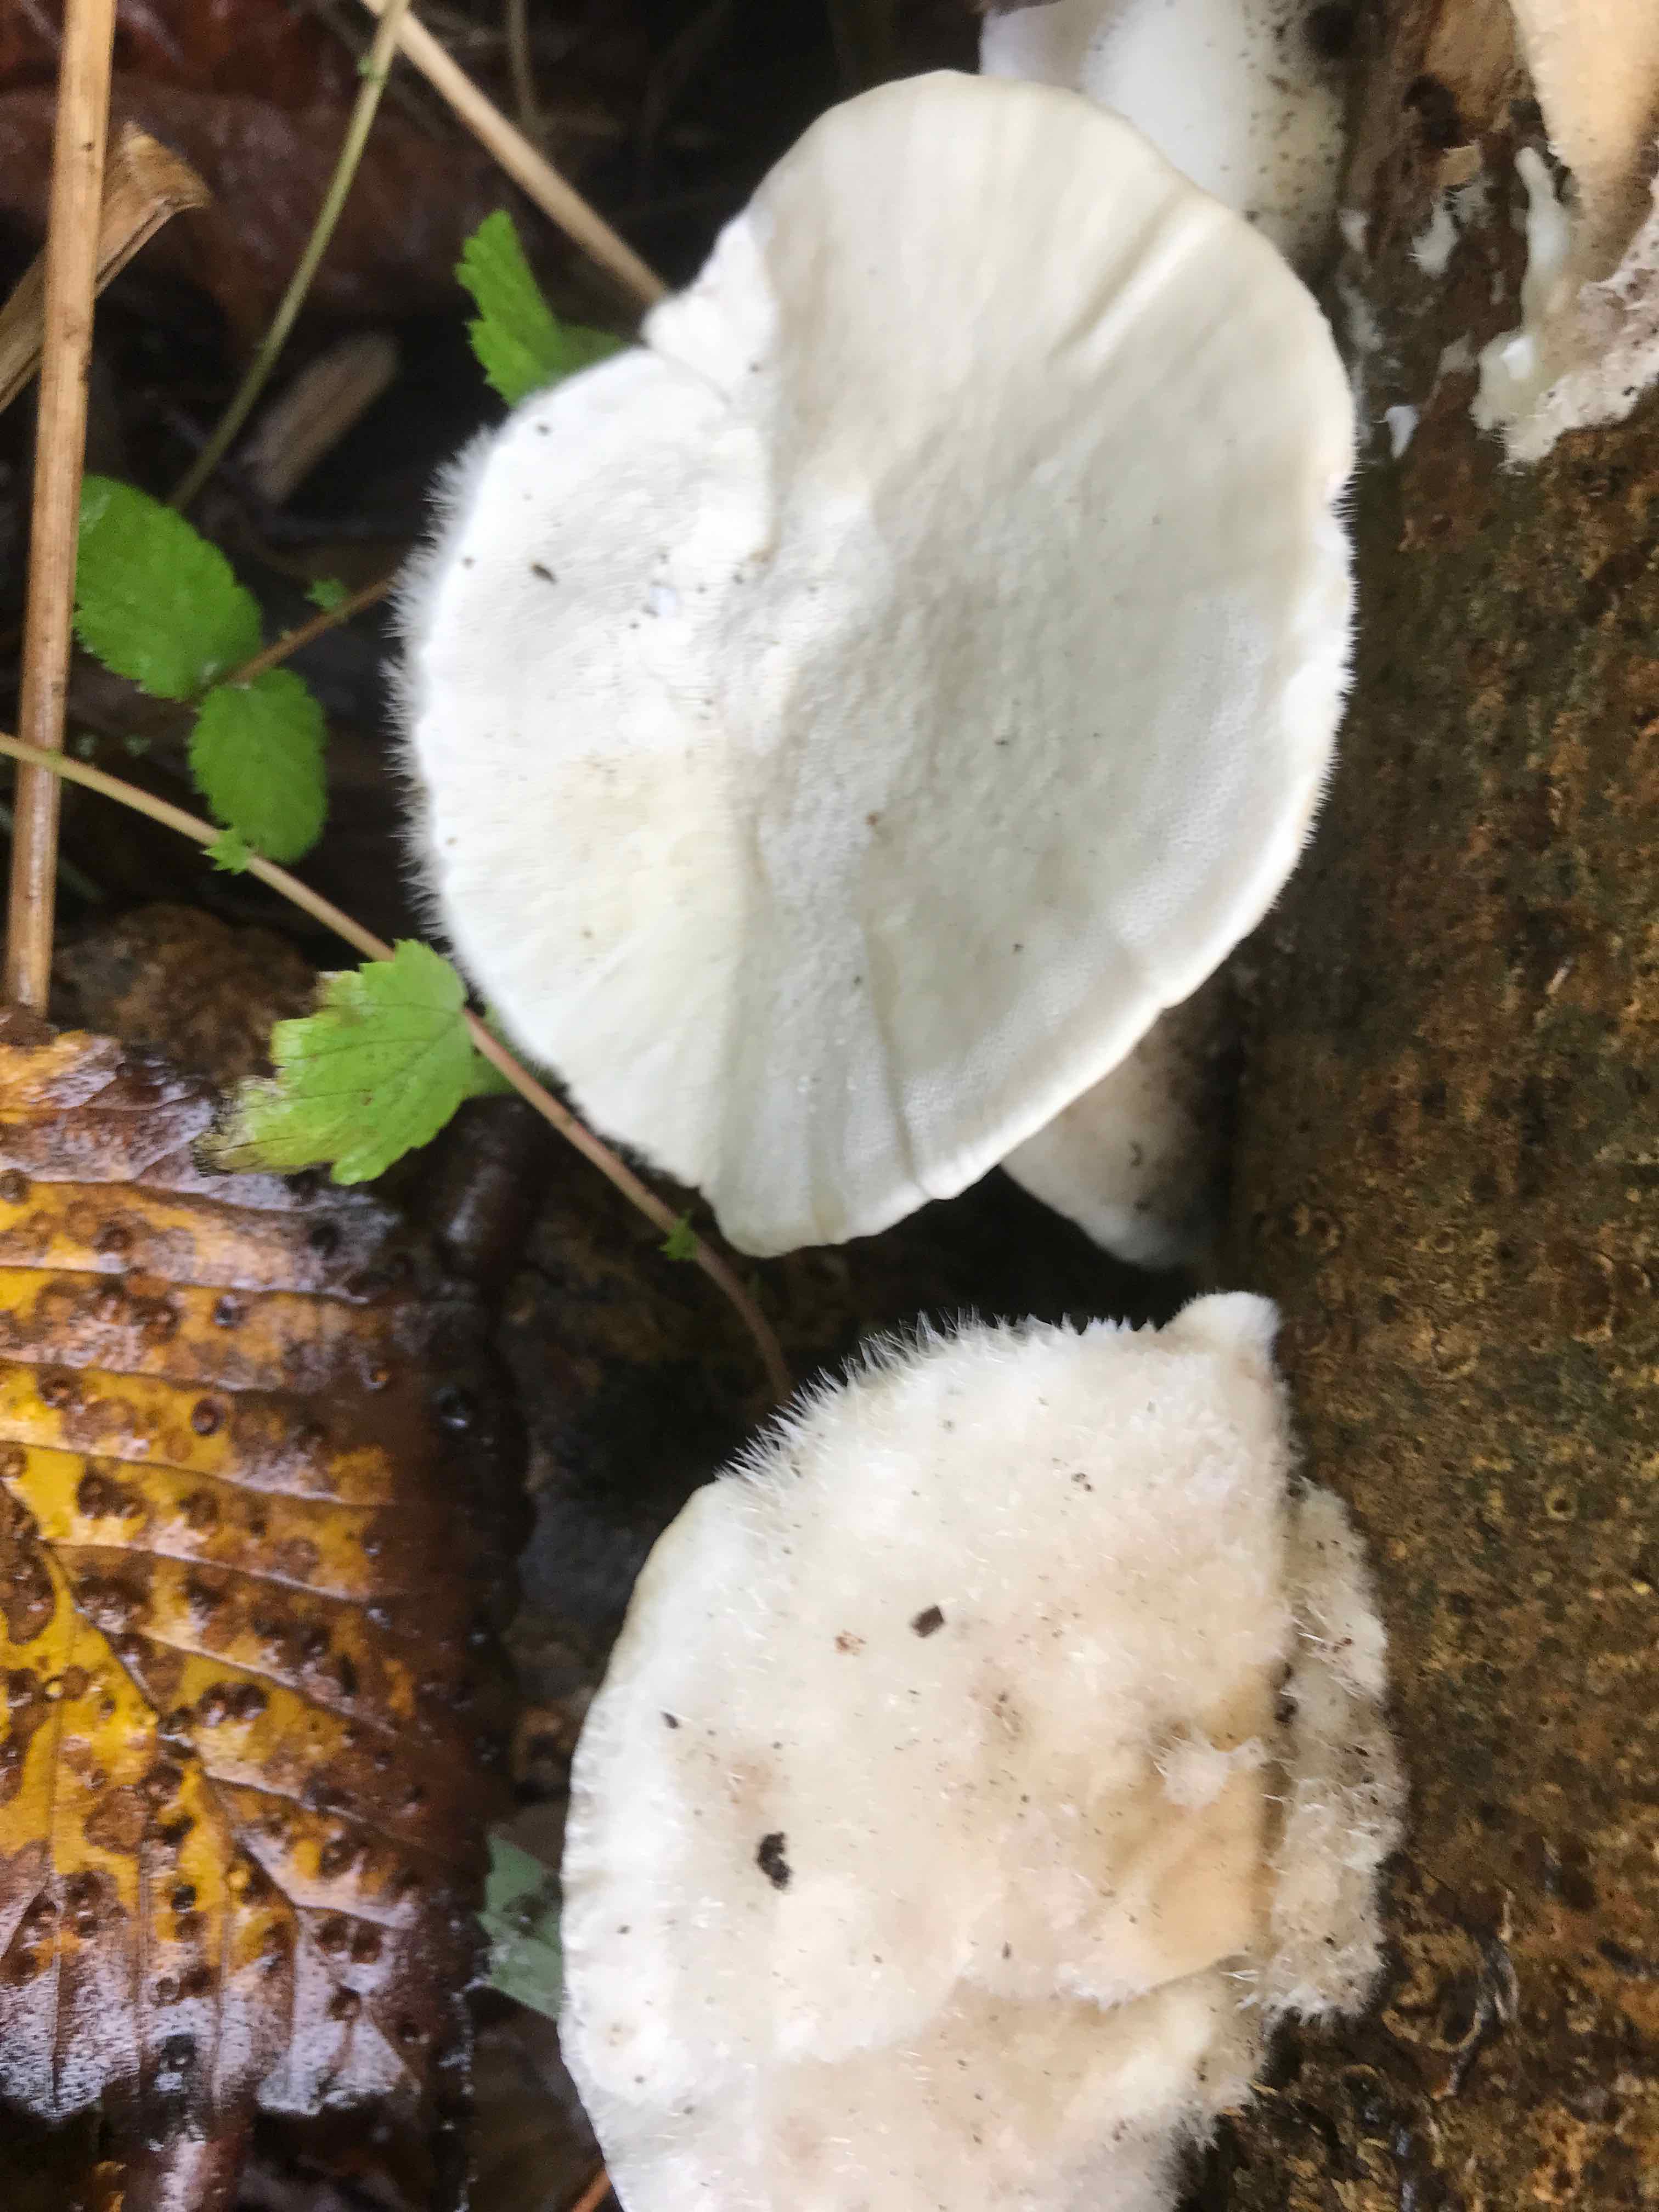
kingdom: Fungi
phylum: Basidiomycota
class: Agaricomycetes
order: Polyporales
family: Polyporaceae
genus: Trametes
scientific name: Trametes hirsuta
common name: håret læderporesvamp
